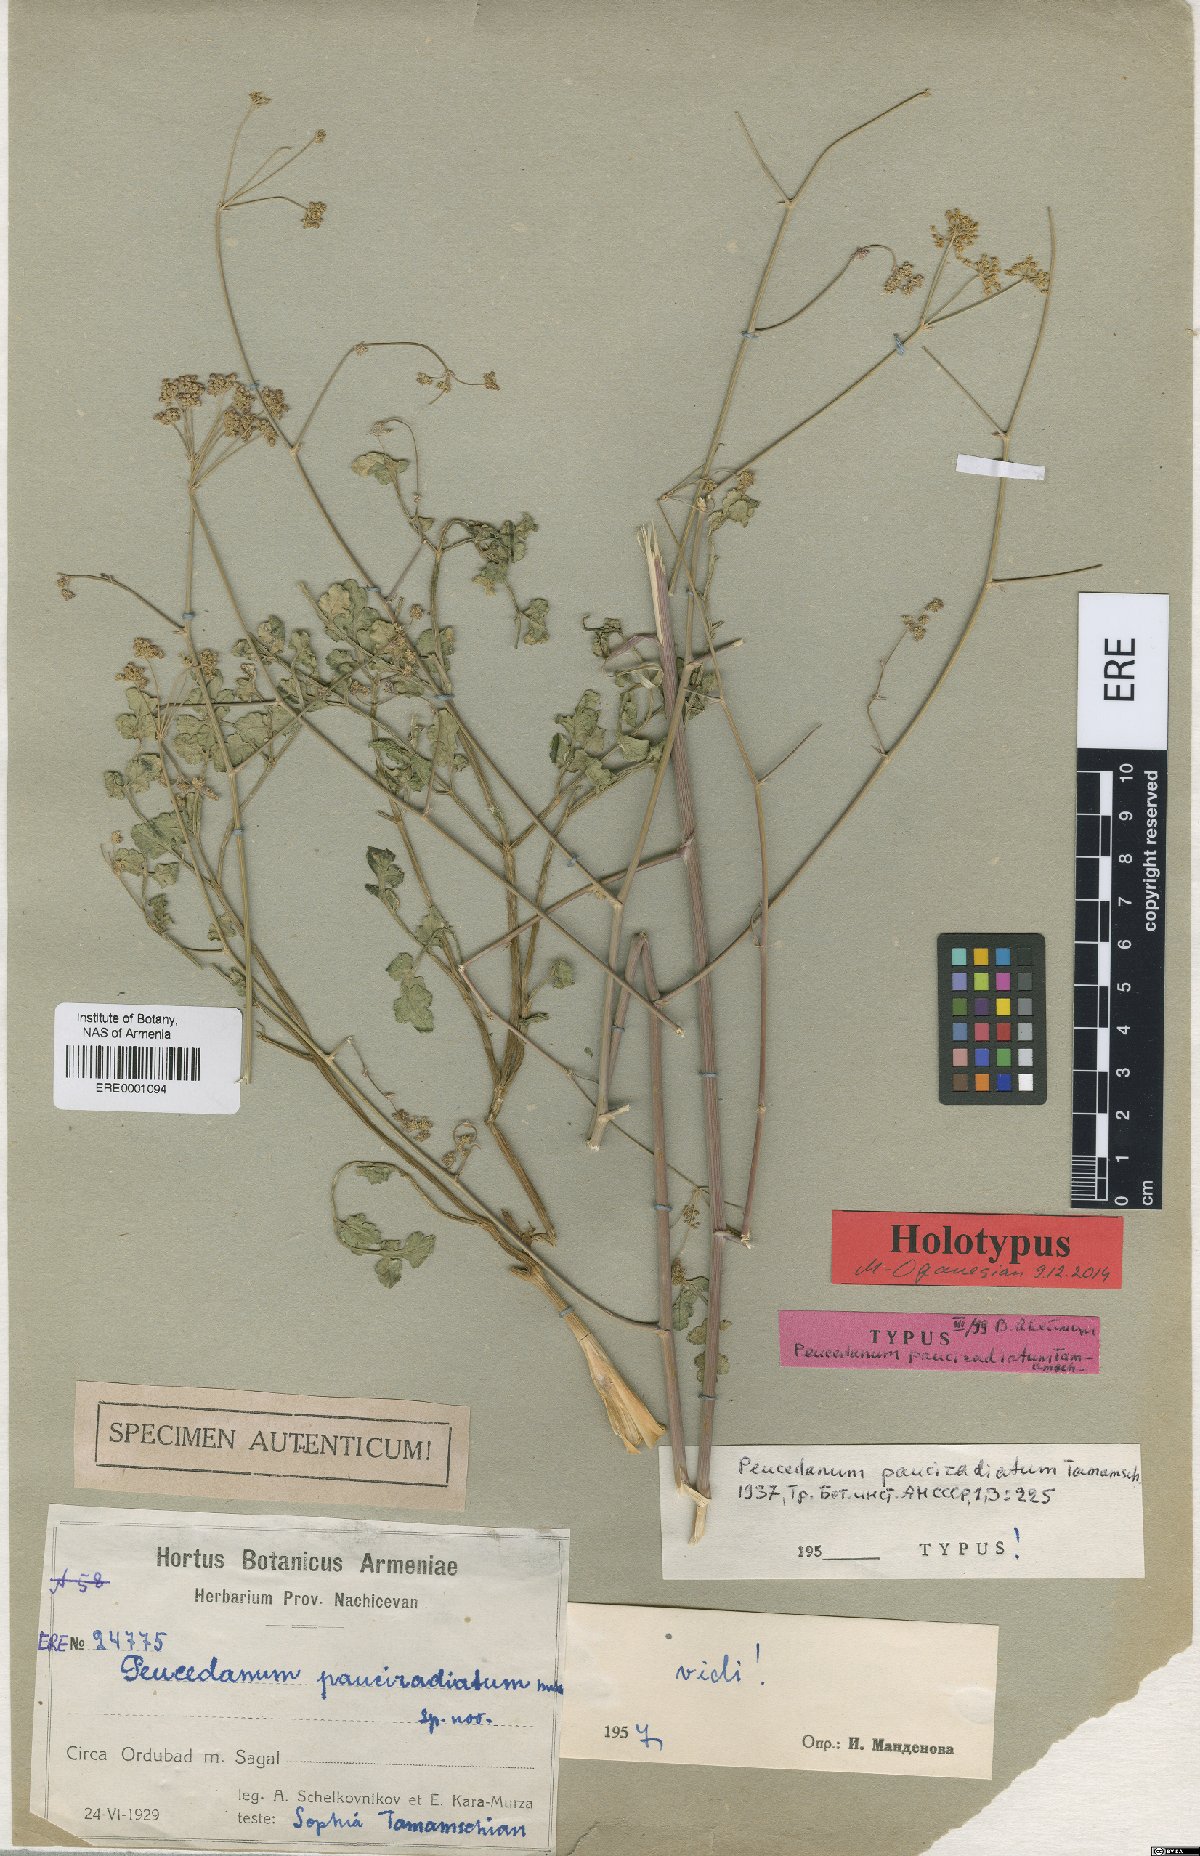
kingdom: Plantae
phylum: Tracheophyta
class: Magnoliopsida
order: Apiales
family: Apiaceae
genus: Zeravschania
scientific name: Zeravschania pauciradiata
